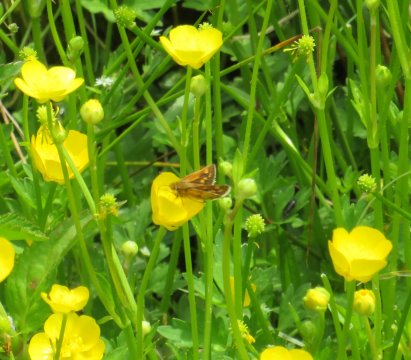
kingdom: Animalia
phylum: Arthropoda
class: Insecta
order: Lepidoptera
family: Hesperiidae
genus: Polites
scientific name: Polites coras
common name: Peck's Skipper
